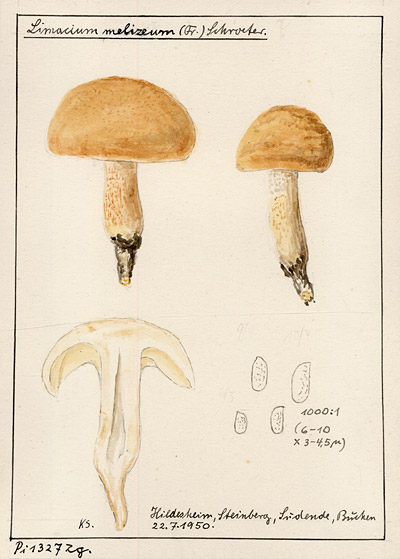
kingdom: Plantae
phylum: Tracheophyta
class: Magnoliopsida
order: Fagales
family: Fagaceae
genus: Fagus
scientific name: Fagus
